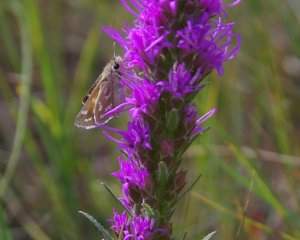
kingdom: Animalia
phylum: Arthropoda
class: Insecta
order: Lepidoptera
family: Hesperiidae
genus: Hesperia
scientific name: Hesperia comma
